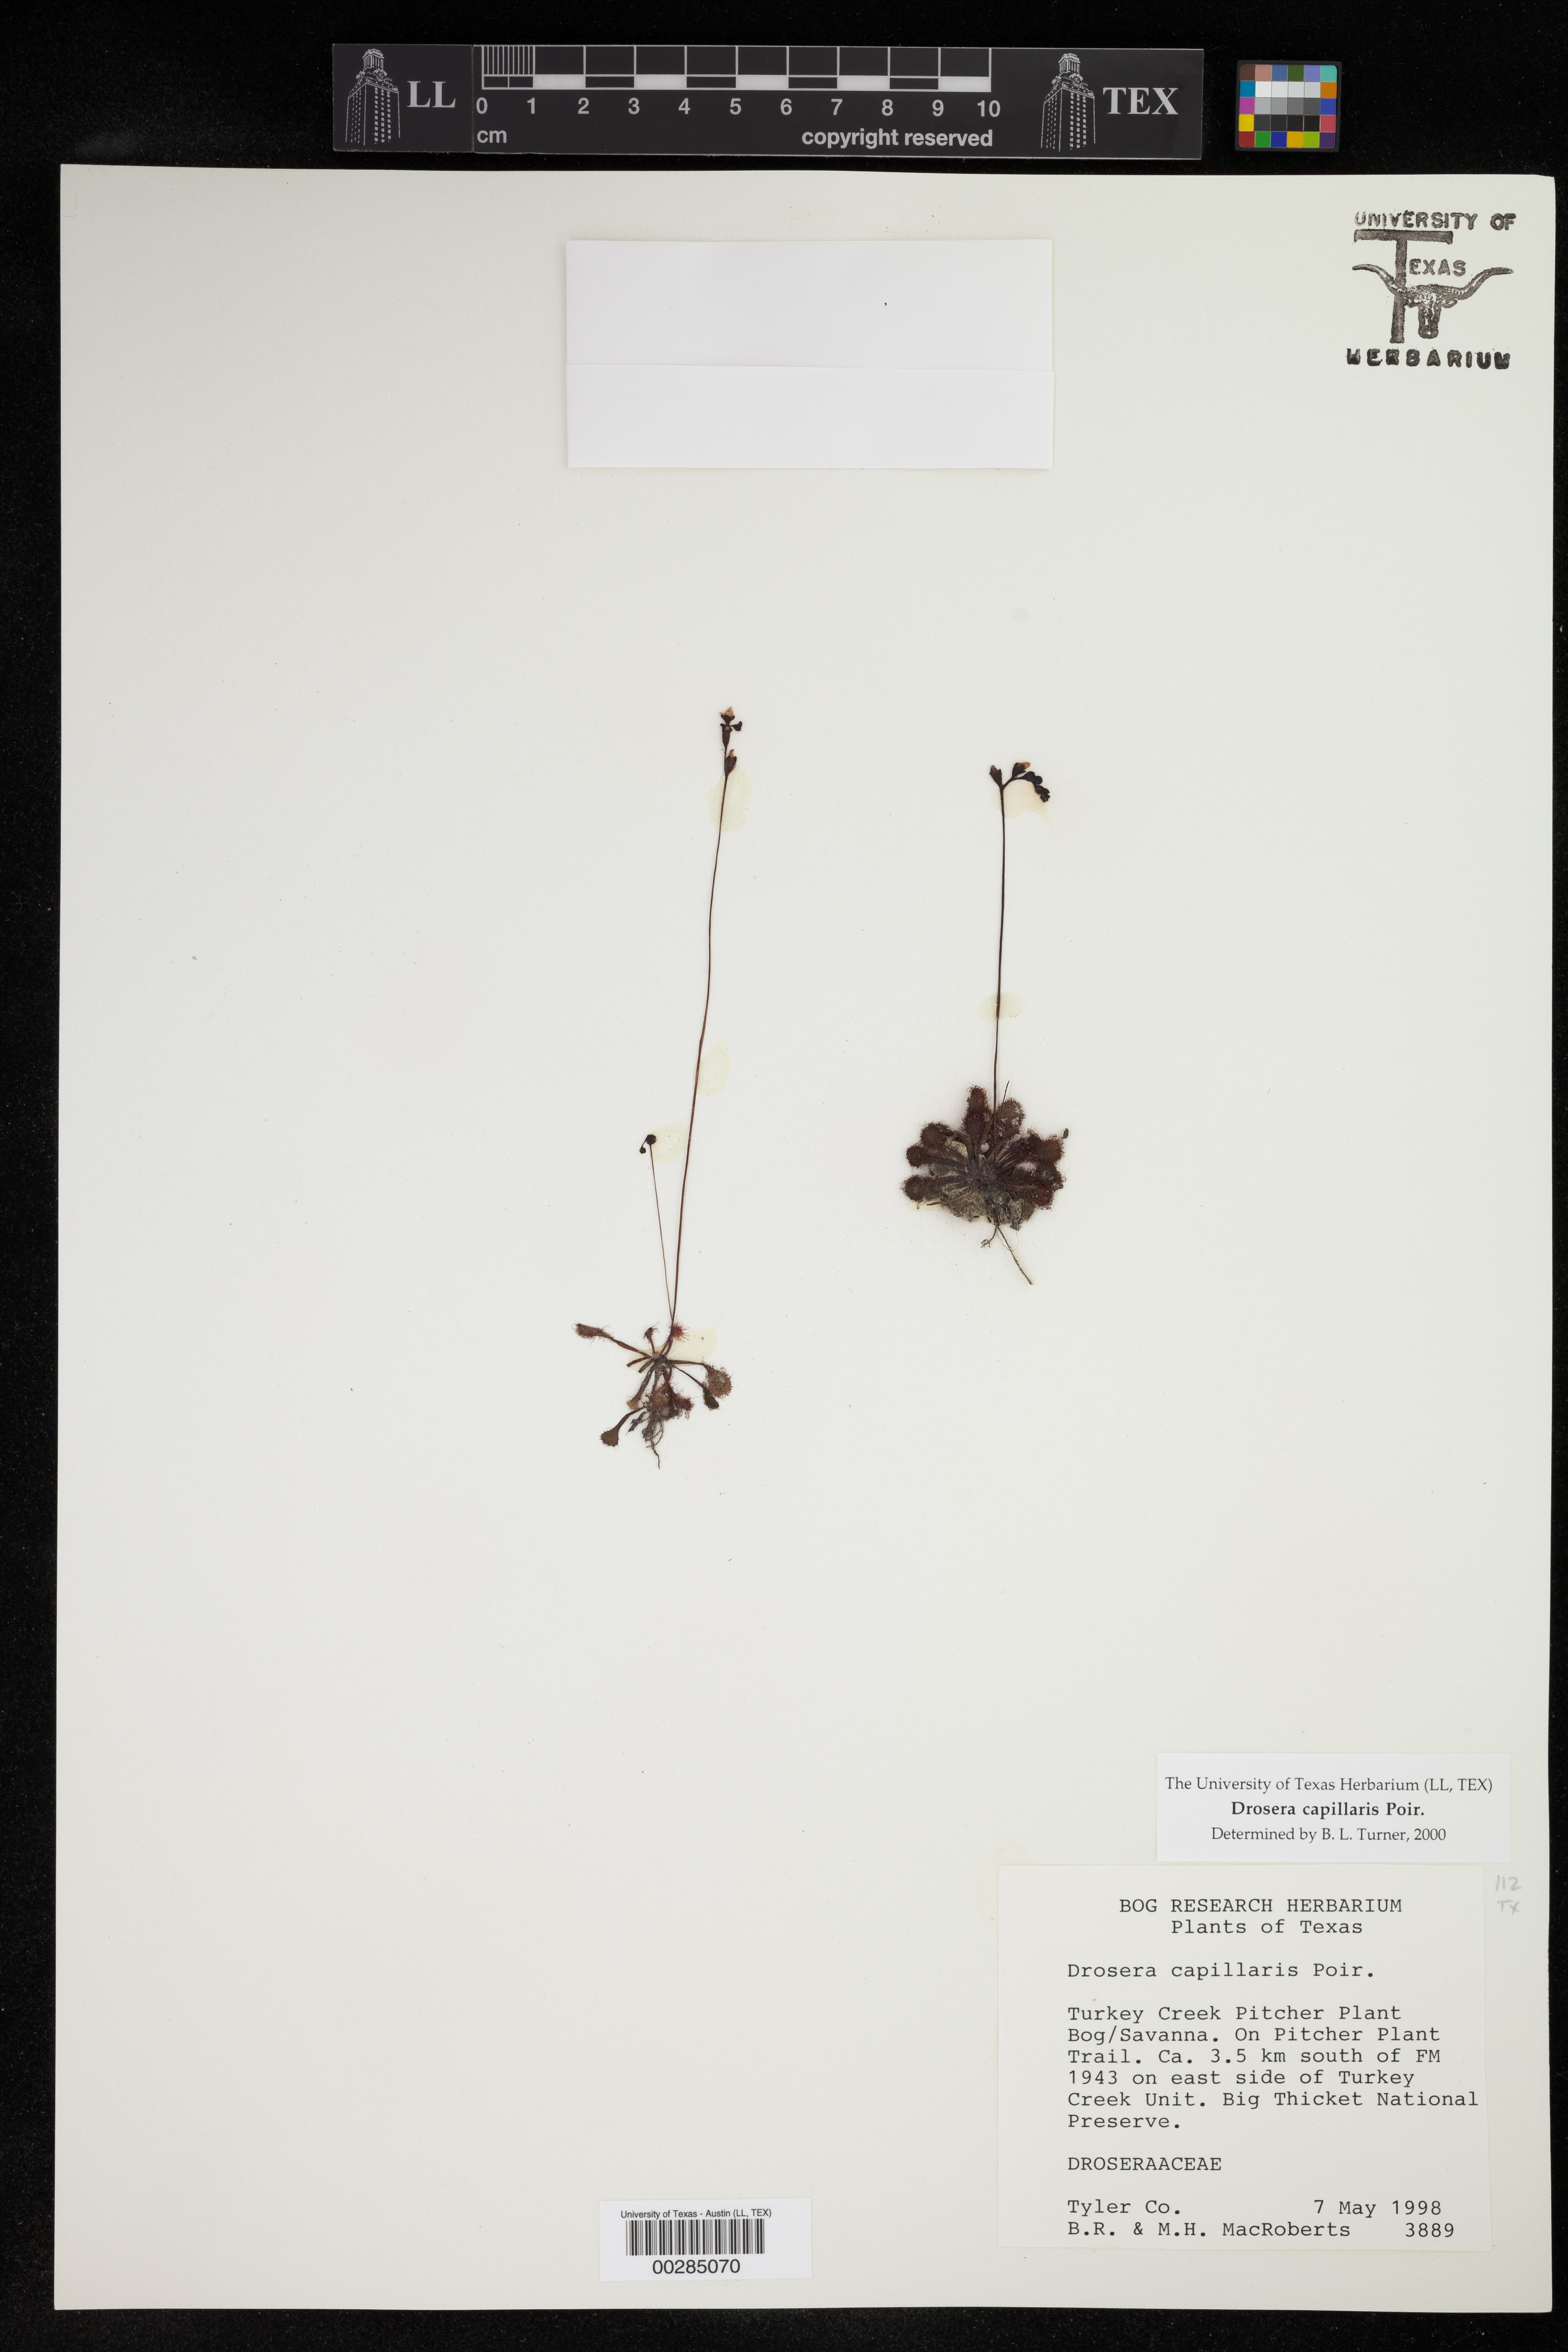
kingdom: Plantae
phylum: Tracheophyta
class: Magnoliopsida
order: Caryophyllales
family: Droseraceae
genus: Drosera
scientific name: Drosera capillaris
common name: Pink sundew
